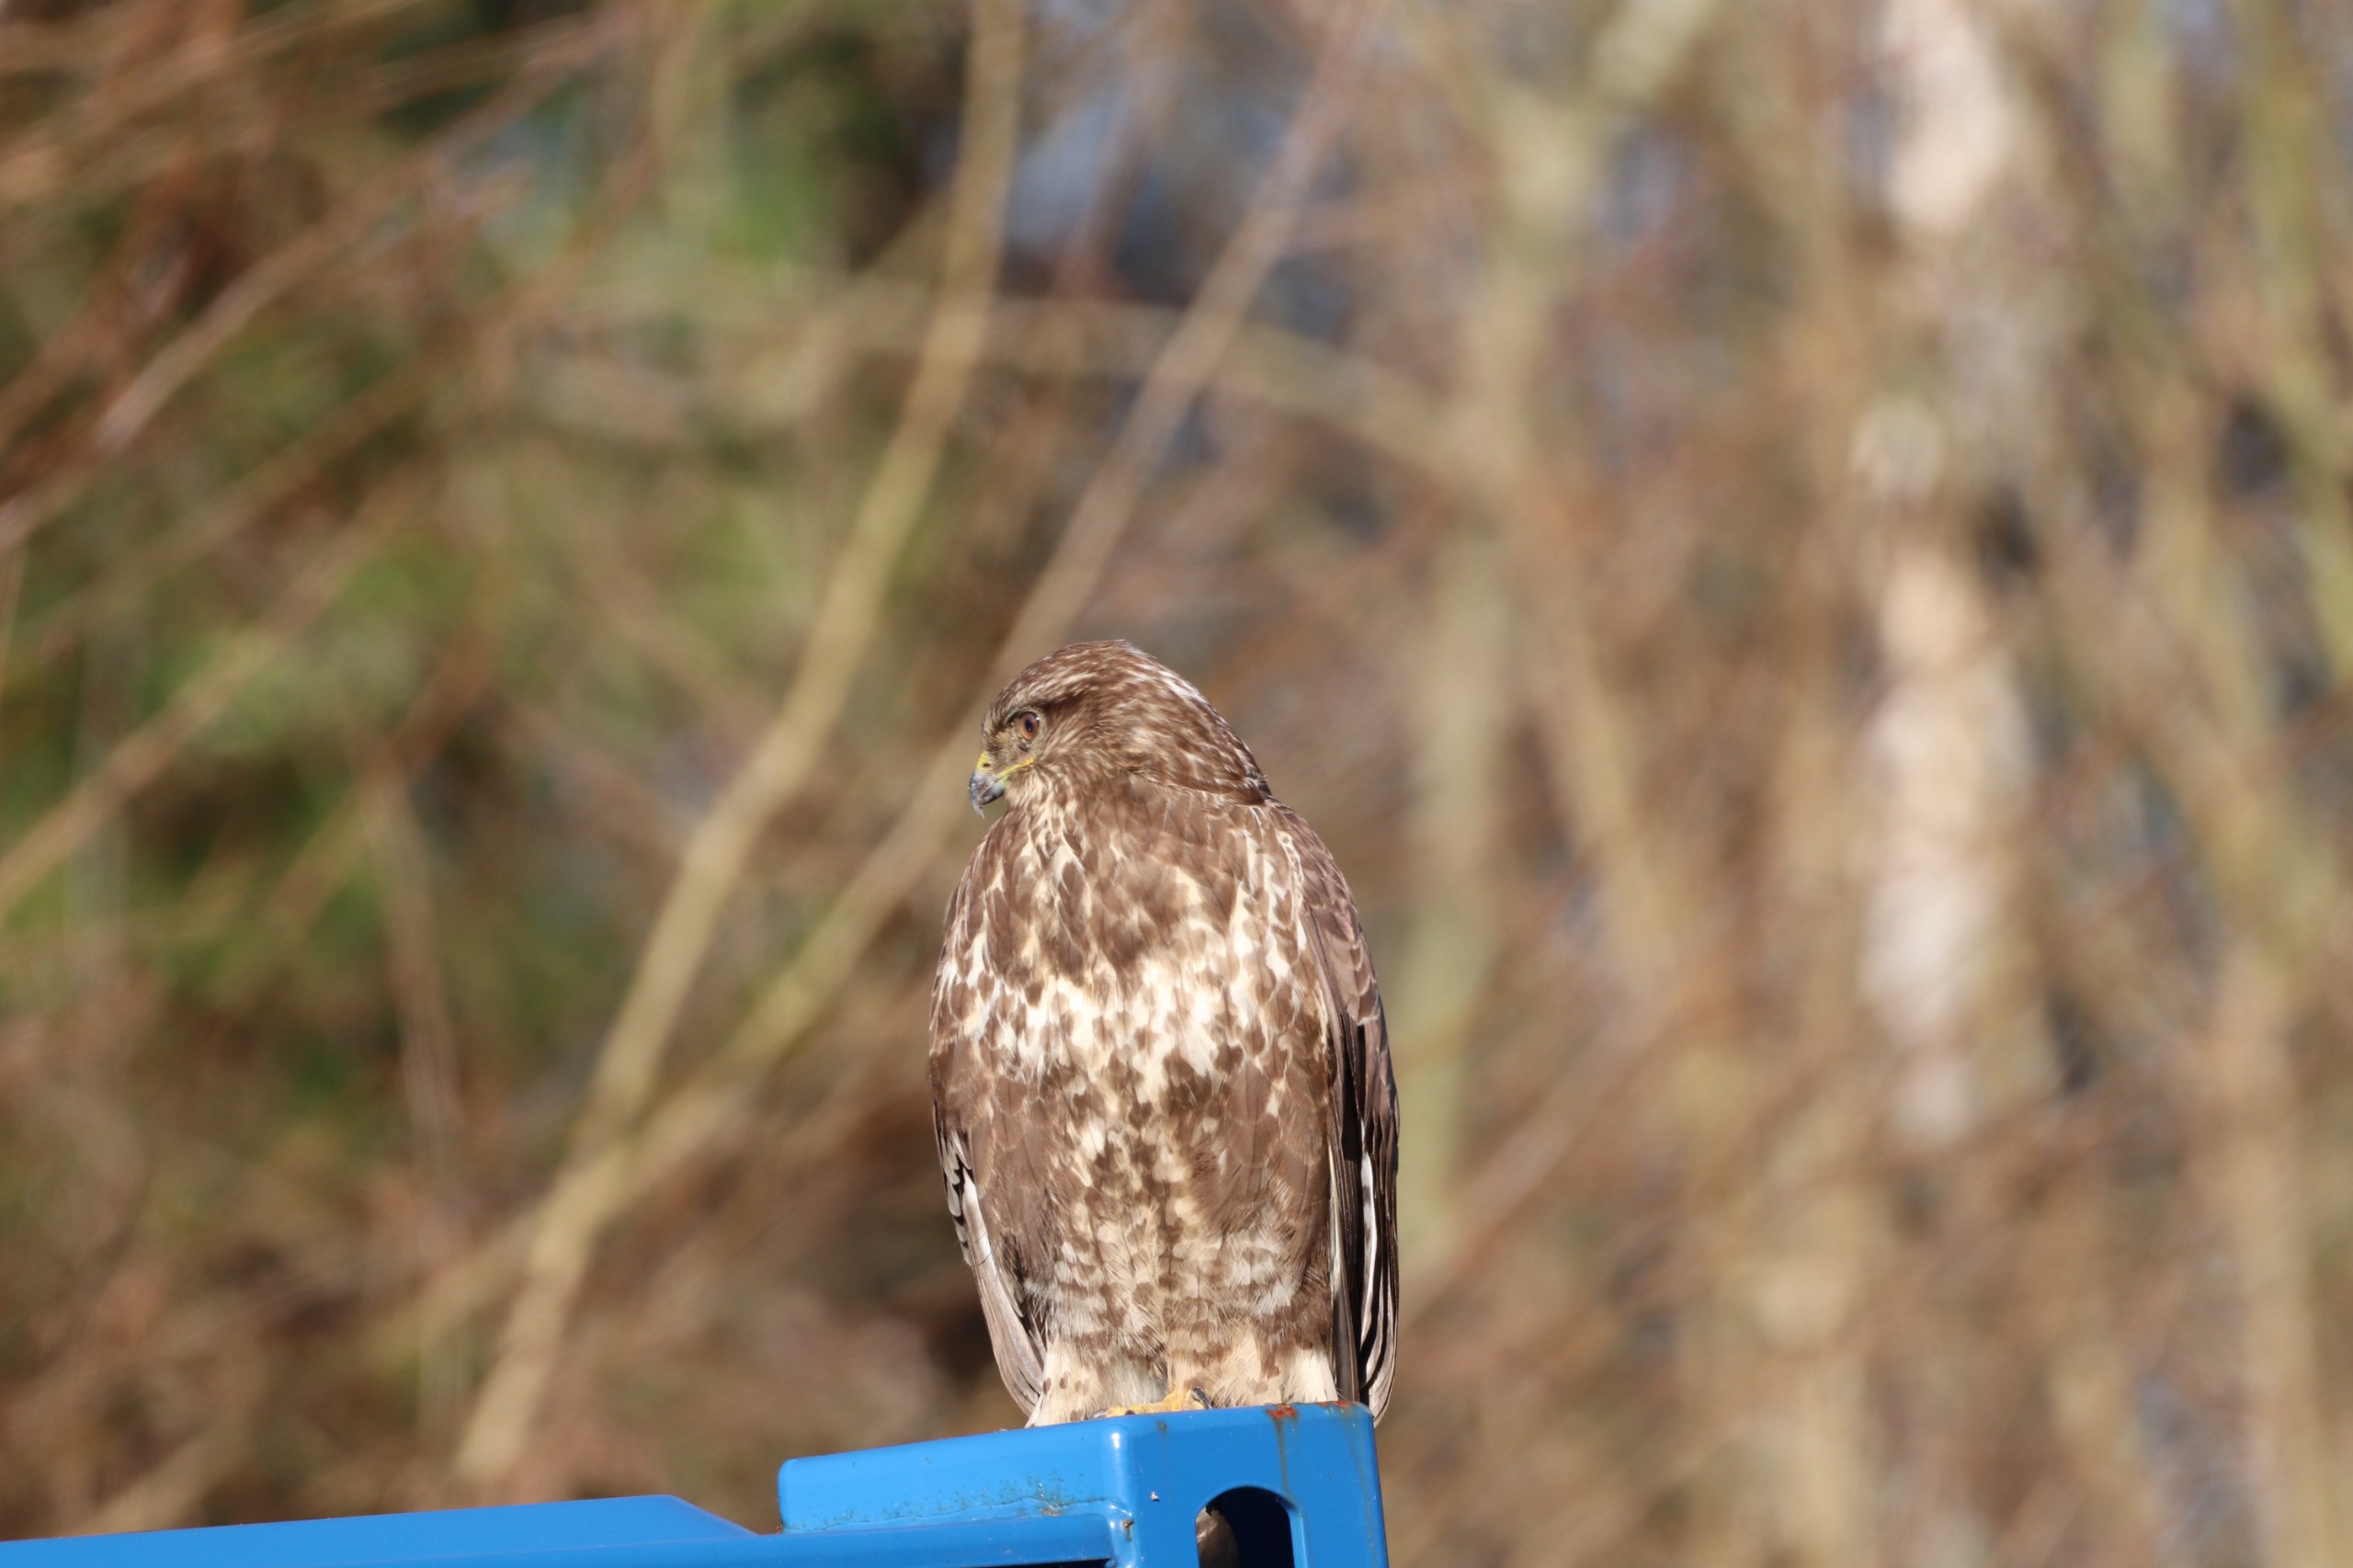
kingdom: Animalia
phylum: Chordata
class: Aves
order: Accipitriformes
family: Accipitridae
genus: Buteo
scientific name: Buteo buteo
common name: Musvåge
